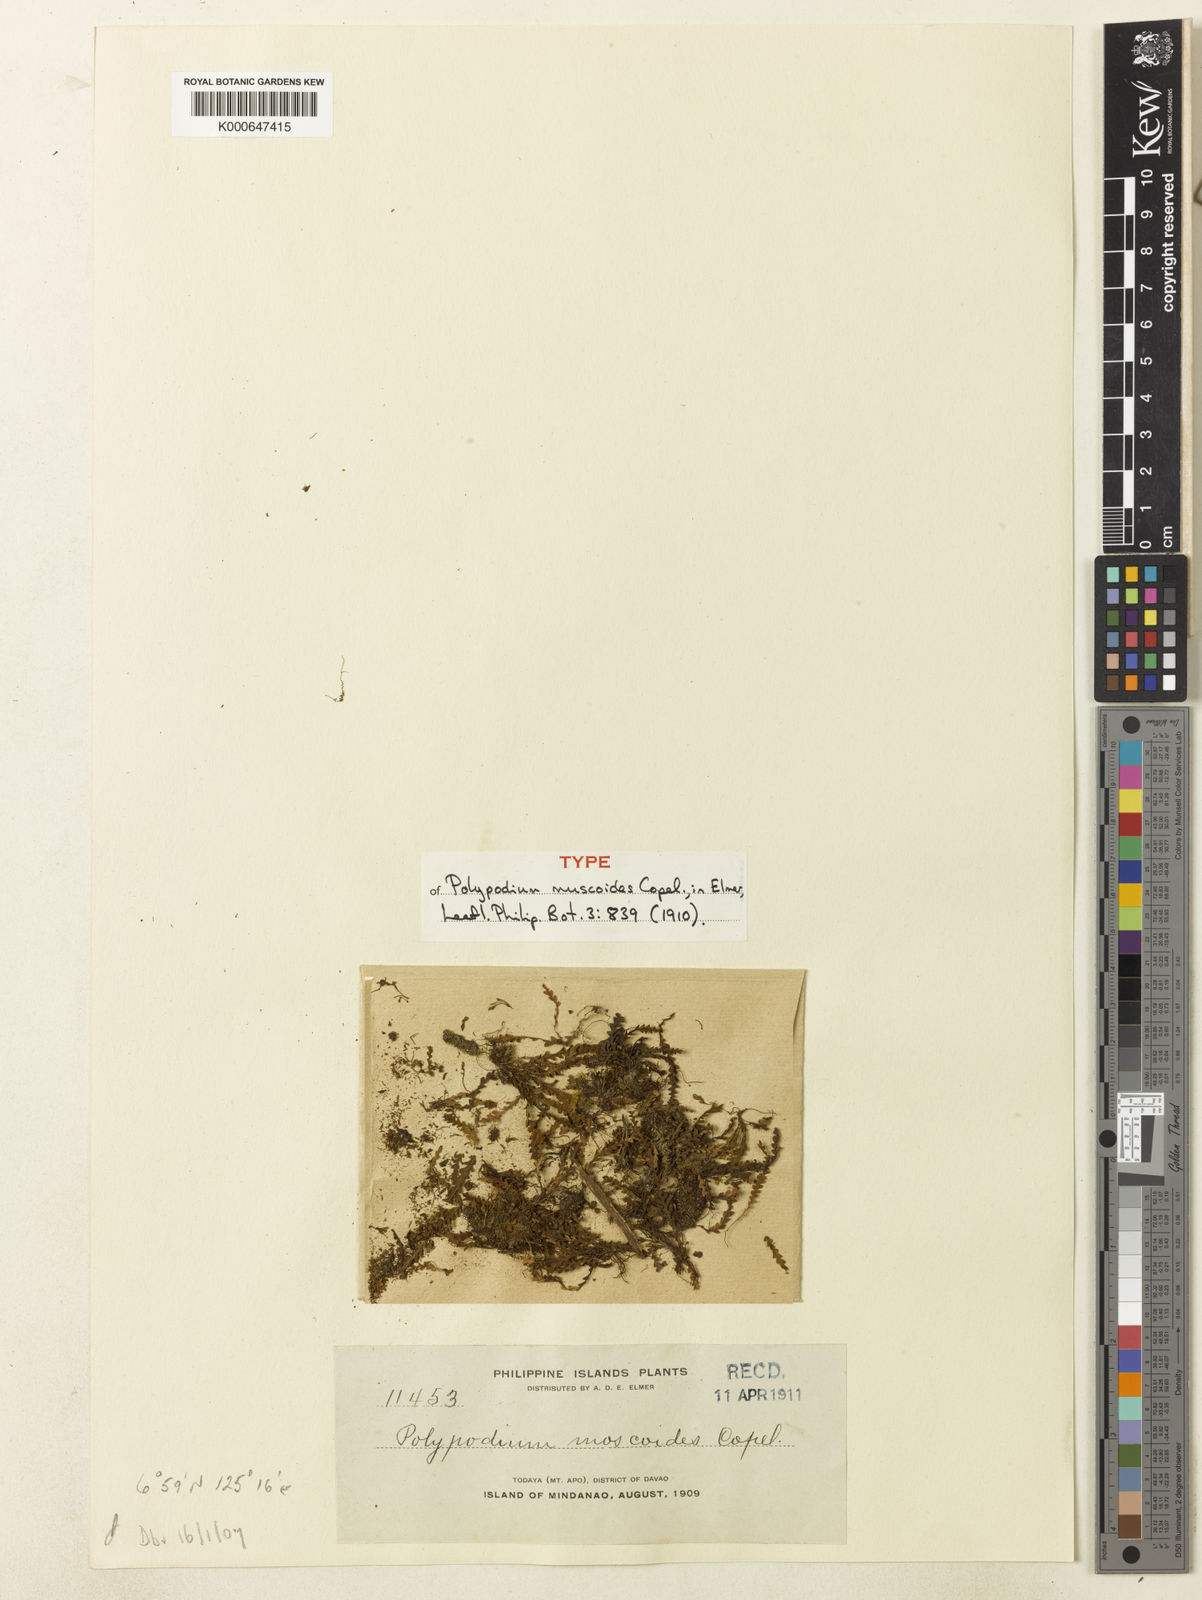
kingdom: Plantae
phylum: Tracheophyta
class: Polypodiopsida
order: Polypodiales
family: Polypodiaceae
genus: Calymmodon
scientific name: Calymmodon muscoides
